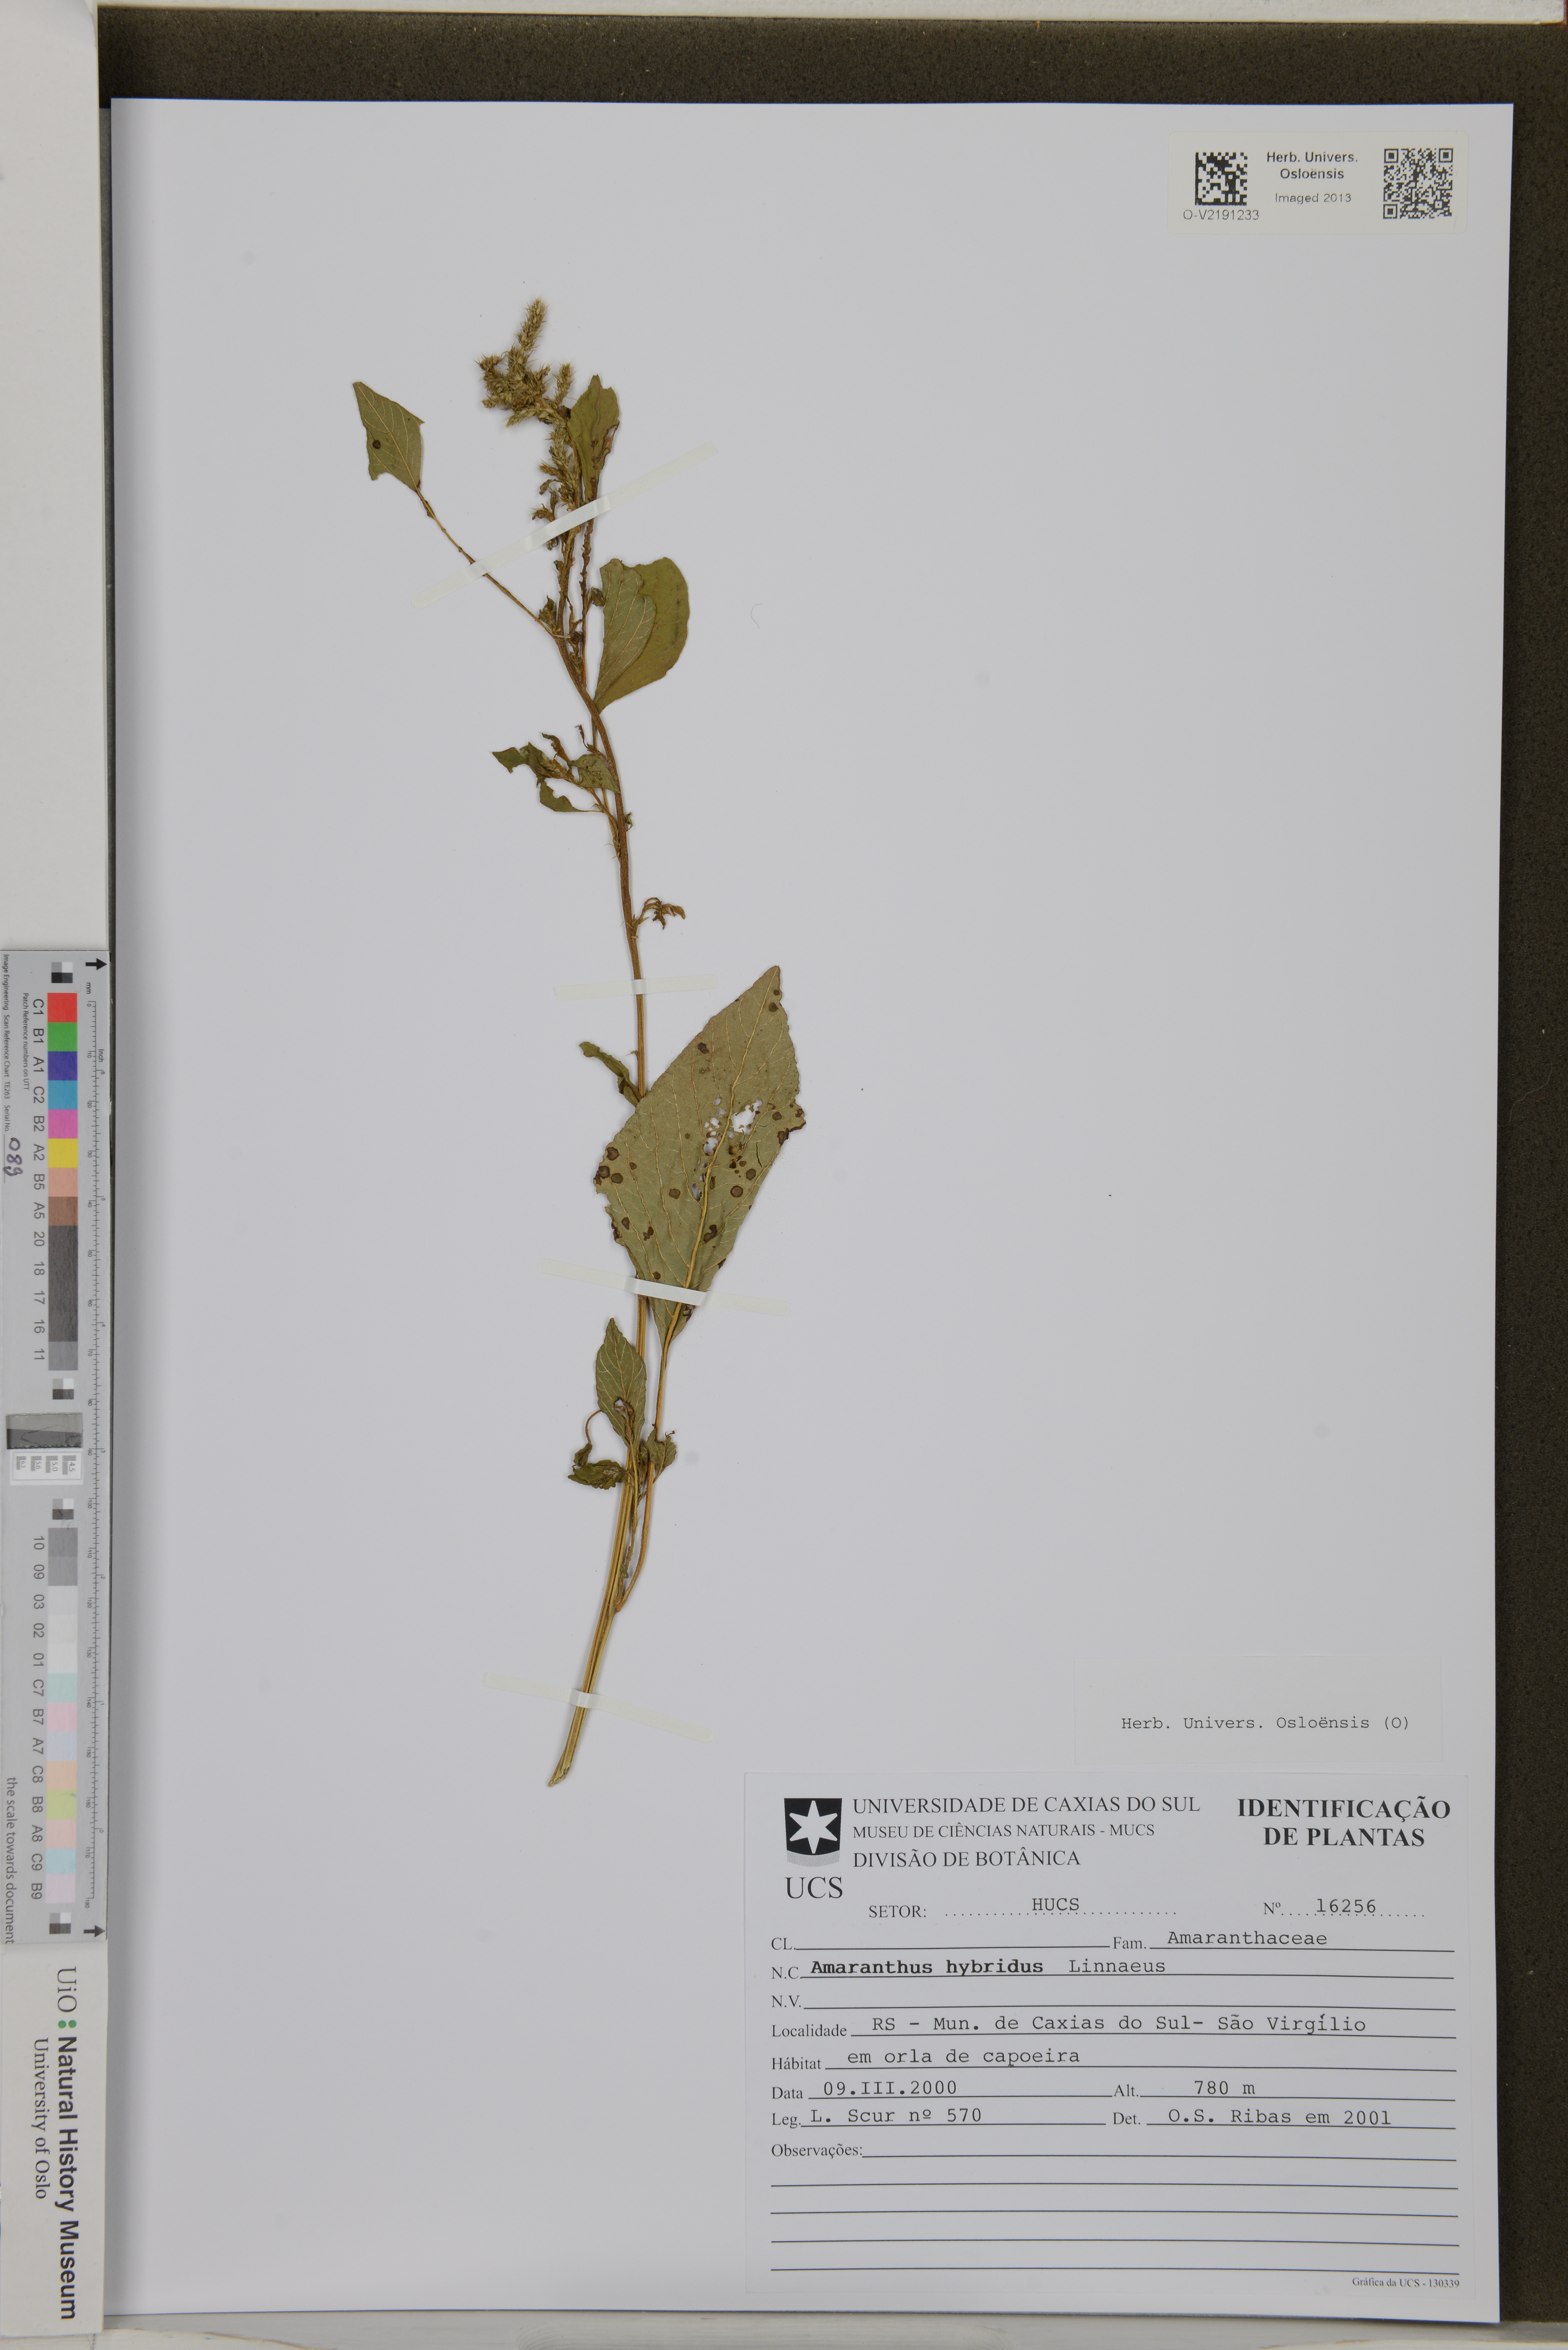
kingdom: Plantae
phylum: Tracheophyta
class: Magnoliopsida
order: Caryophyllales
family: Amaranthaceae
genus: Amaranthus
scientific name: Amaranthus hybridus
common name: Green amaranth
